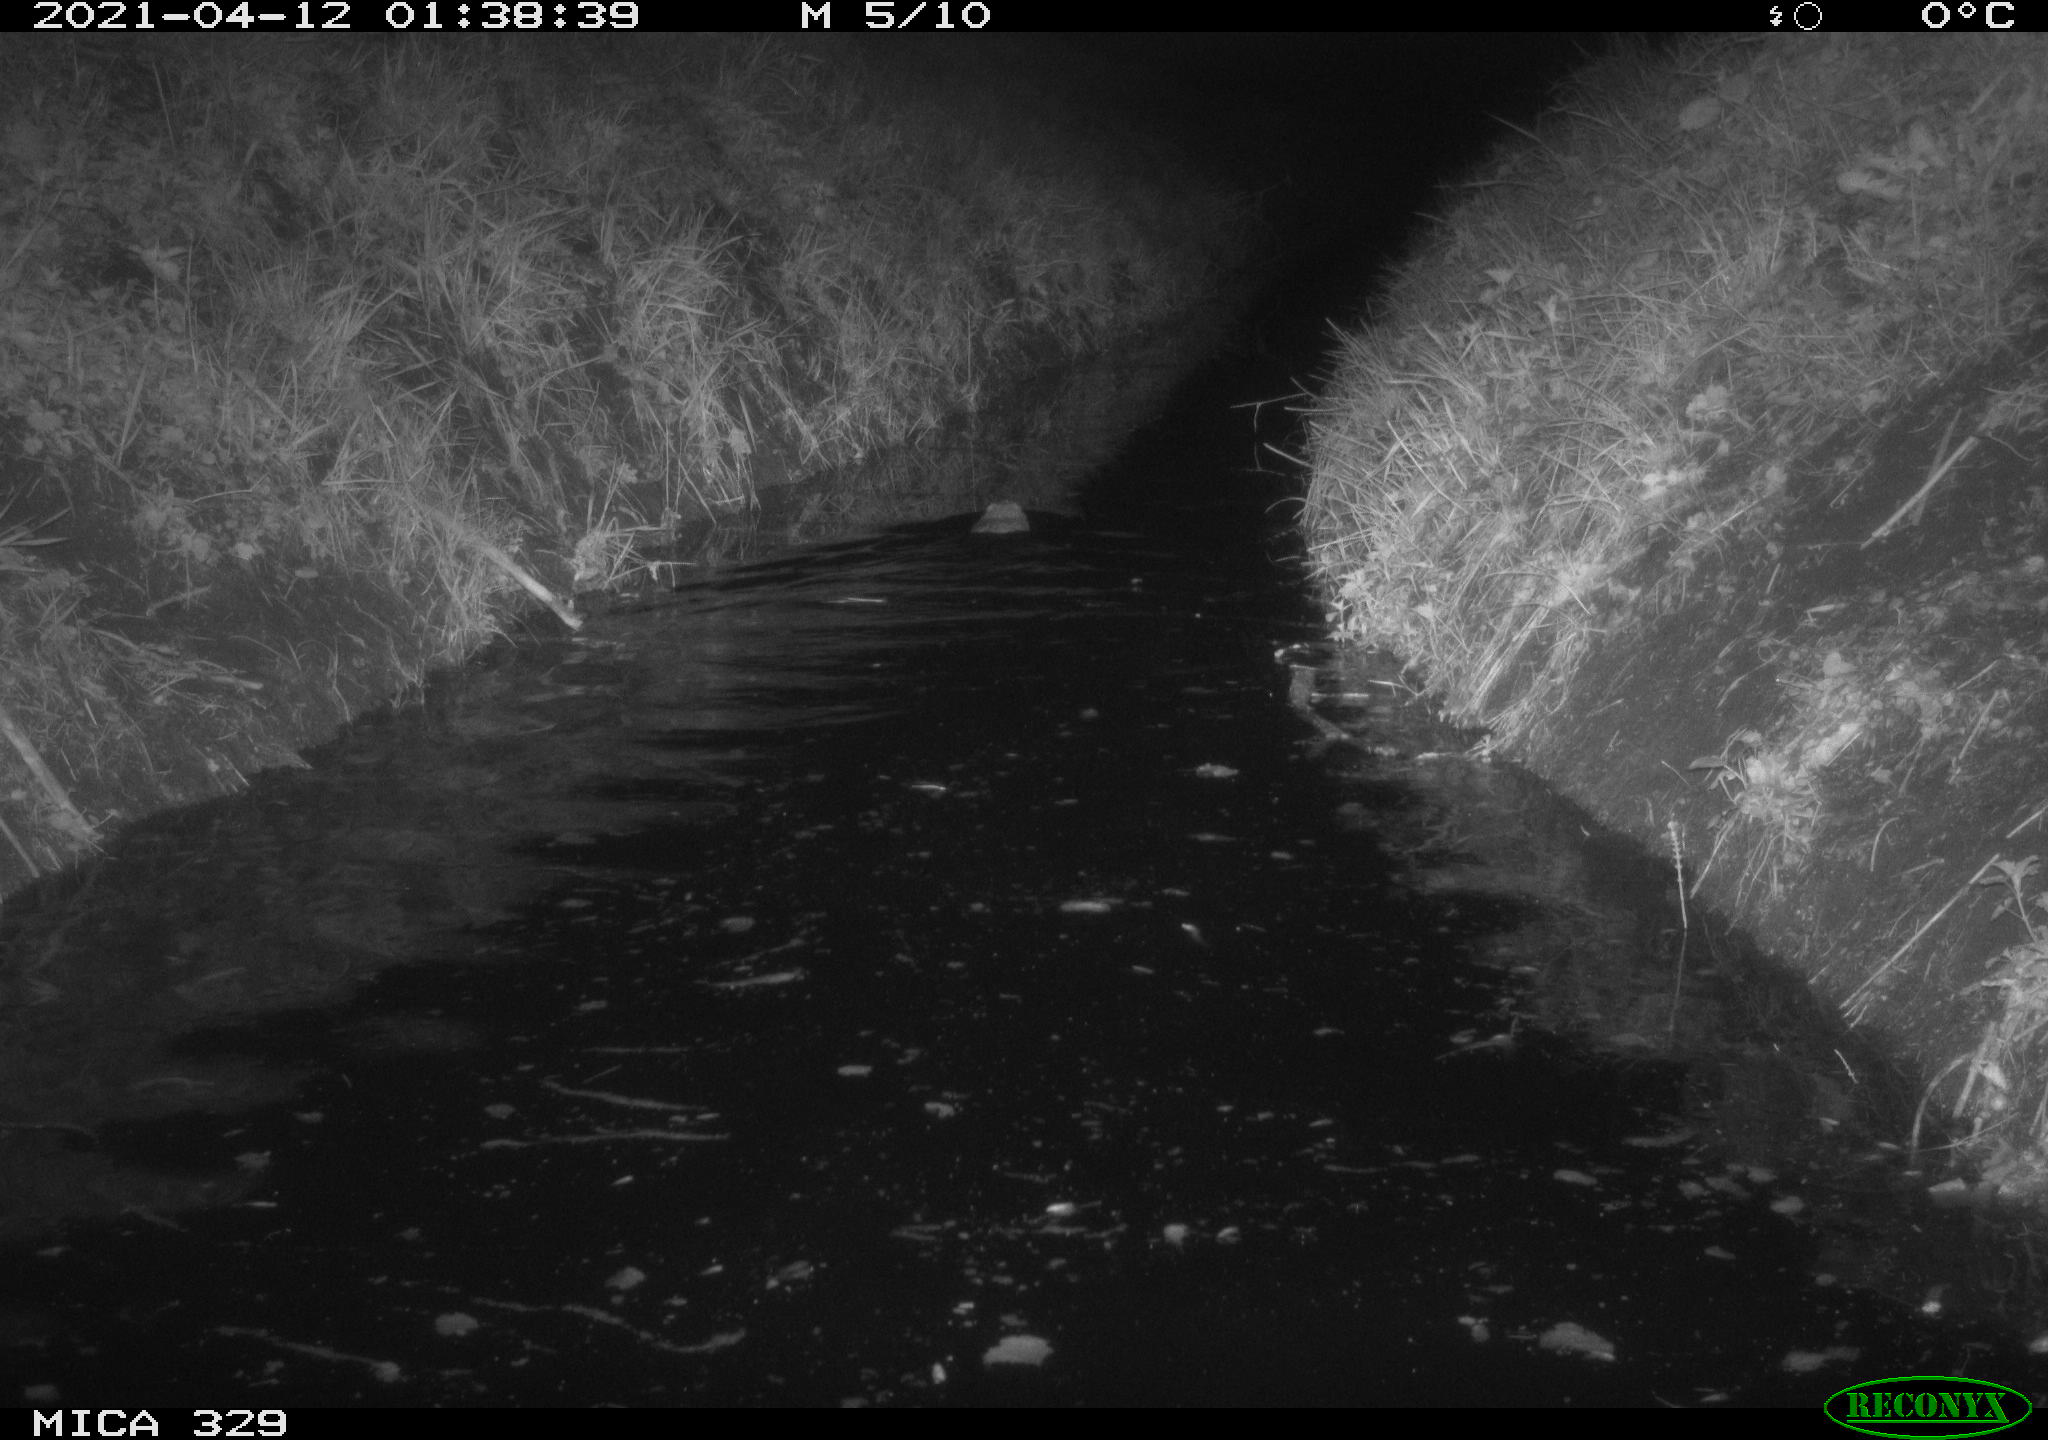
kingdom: Animalia
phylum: Chordata
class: Mammalia
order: Rodentia
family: Cricetidae
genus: Ondatra
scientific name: Ondatra zibethicus
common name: Muskrat
